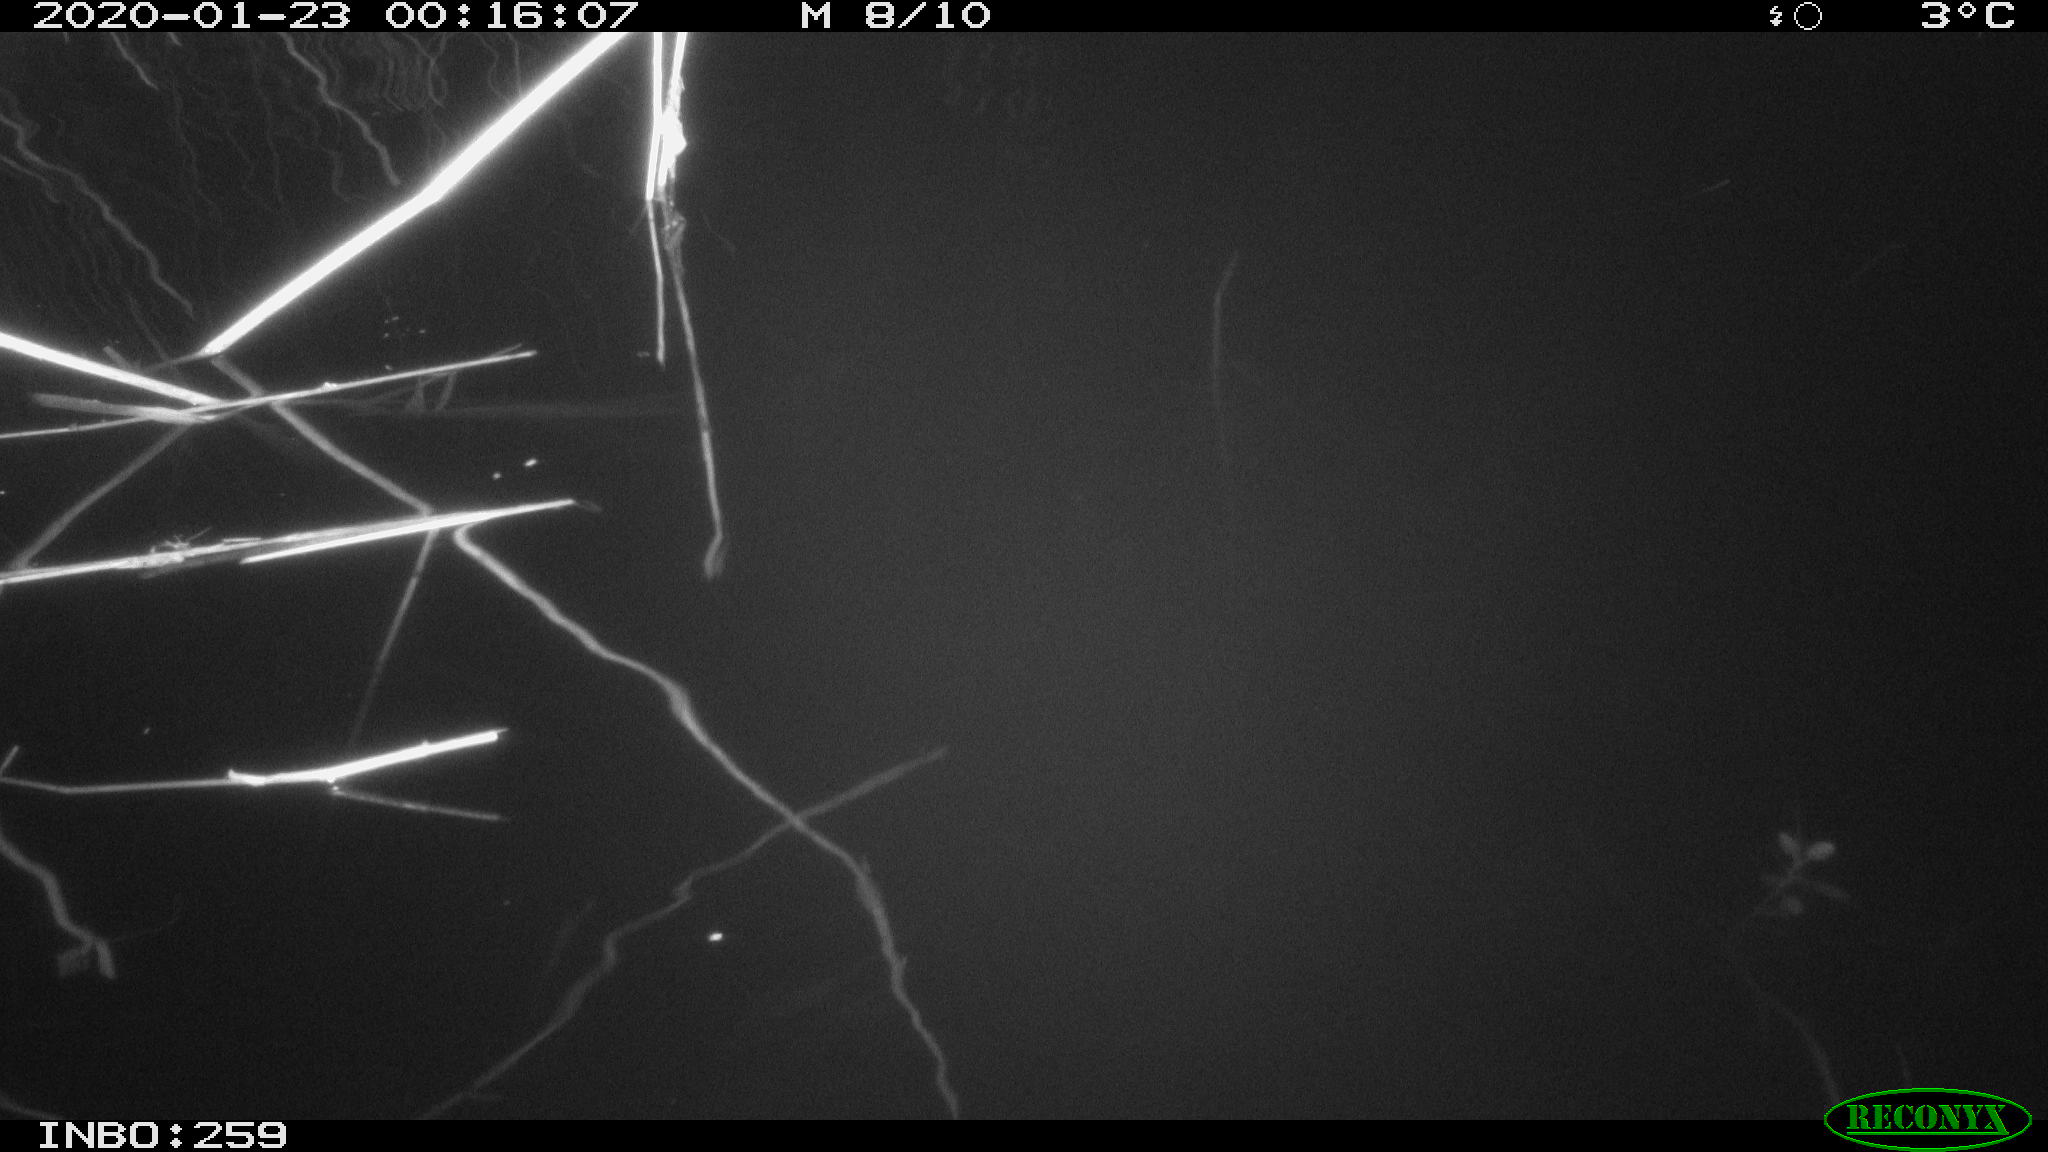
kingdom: Animalia
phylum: Chordata
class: Mammalia
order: Rodentia
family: Cricetidae
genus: Ondatra
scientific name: Ondatra zibethicus
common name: Muskrat
